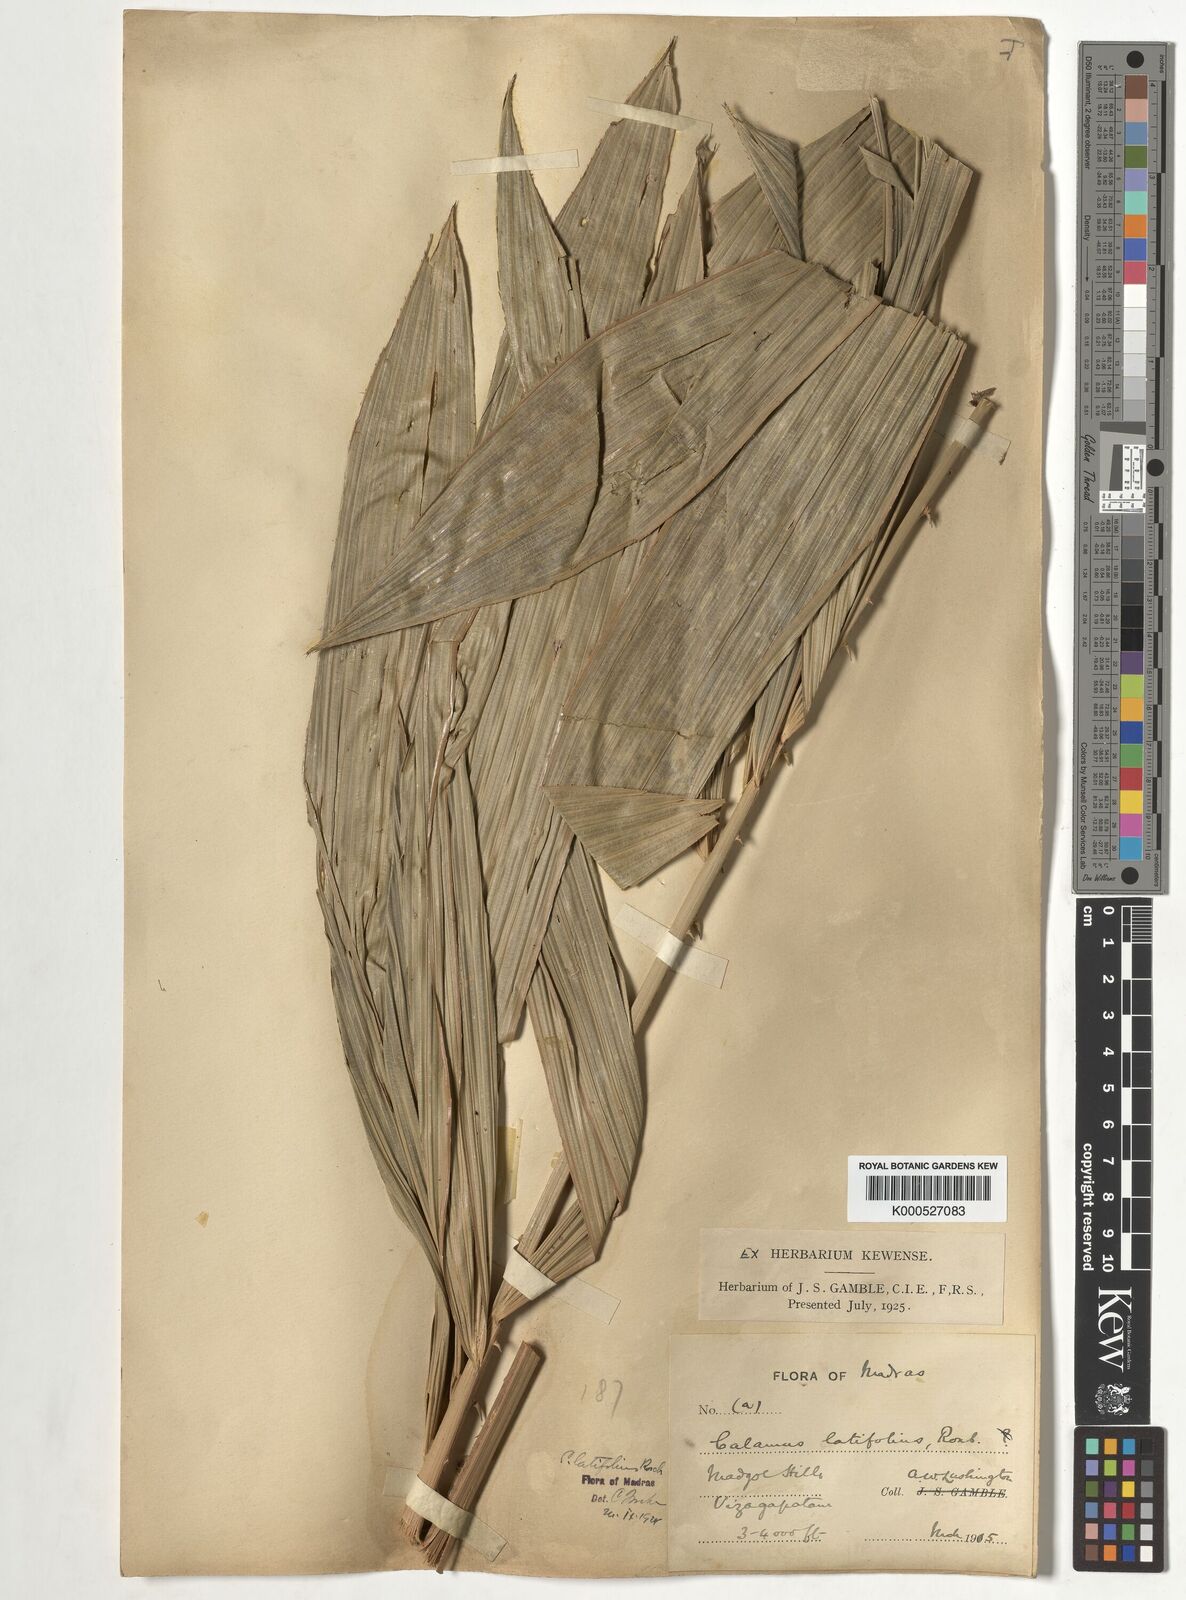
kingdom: Plantae
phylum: Tracheophyta
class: Liliopsida
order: Arecales
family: Arecaceae
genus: Calamus
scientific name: Calamus latifolius
